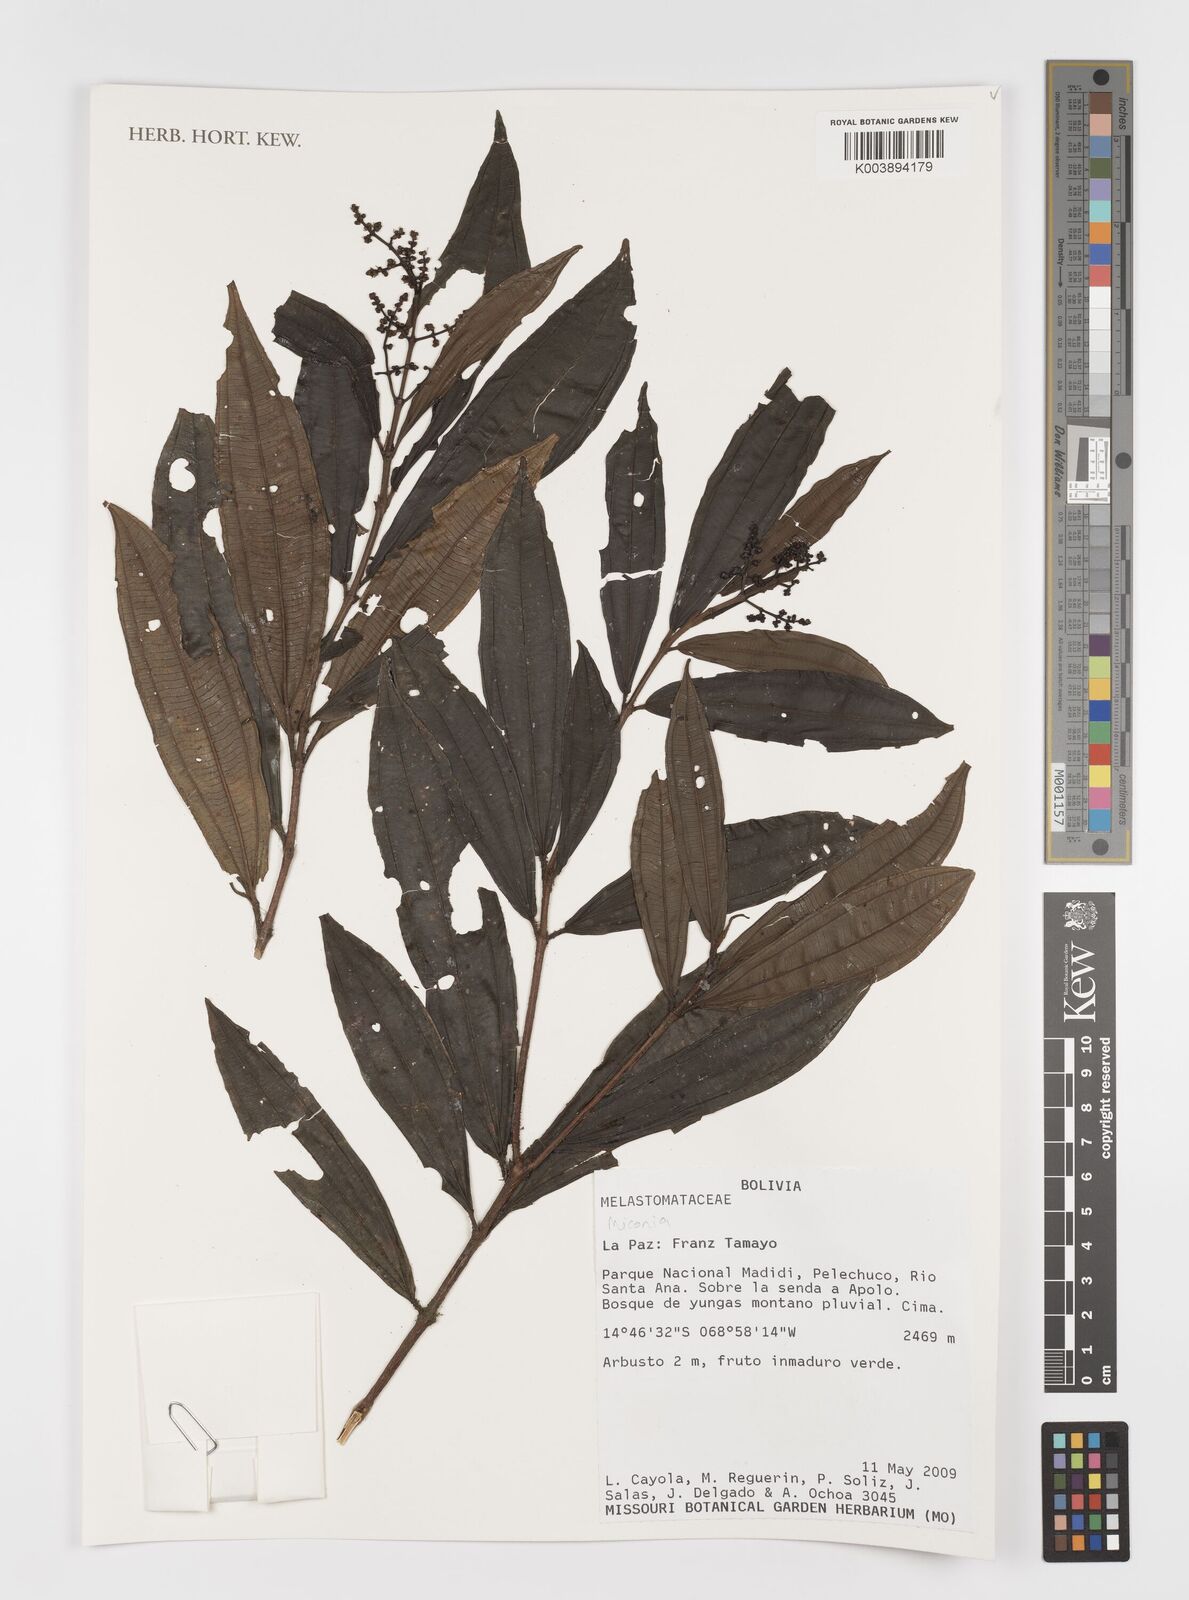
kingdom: Plantae
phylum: Tracheophyta
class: Magnoliopsida
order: Myrtales
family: Melastomataceae
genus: Miconia
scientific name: Miconia
